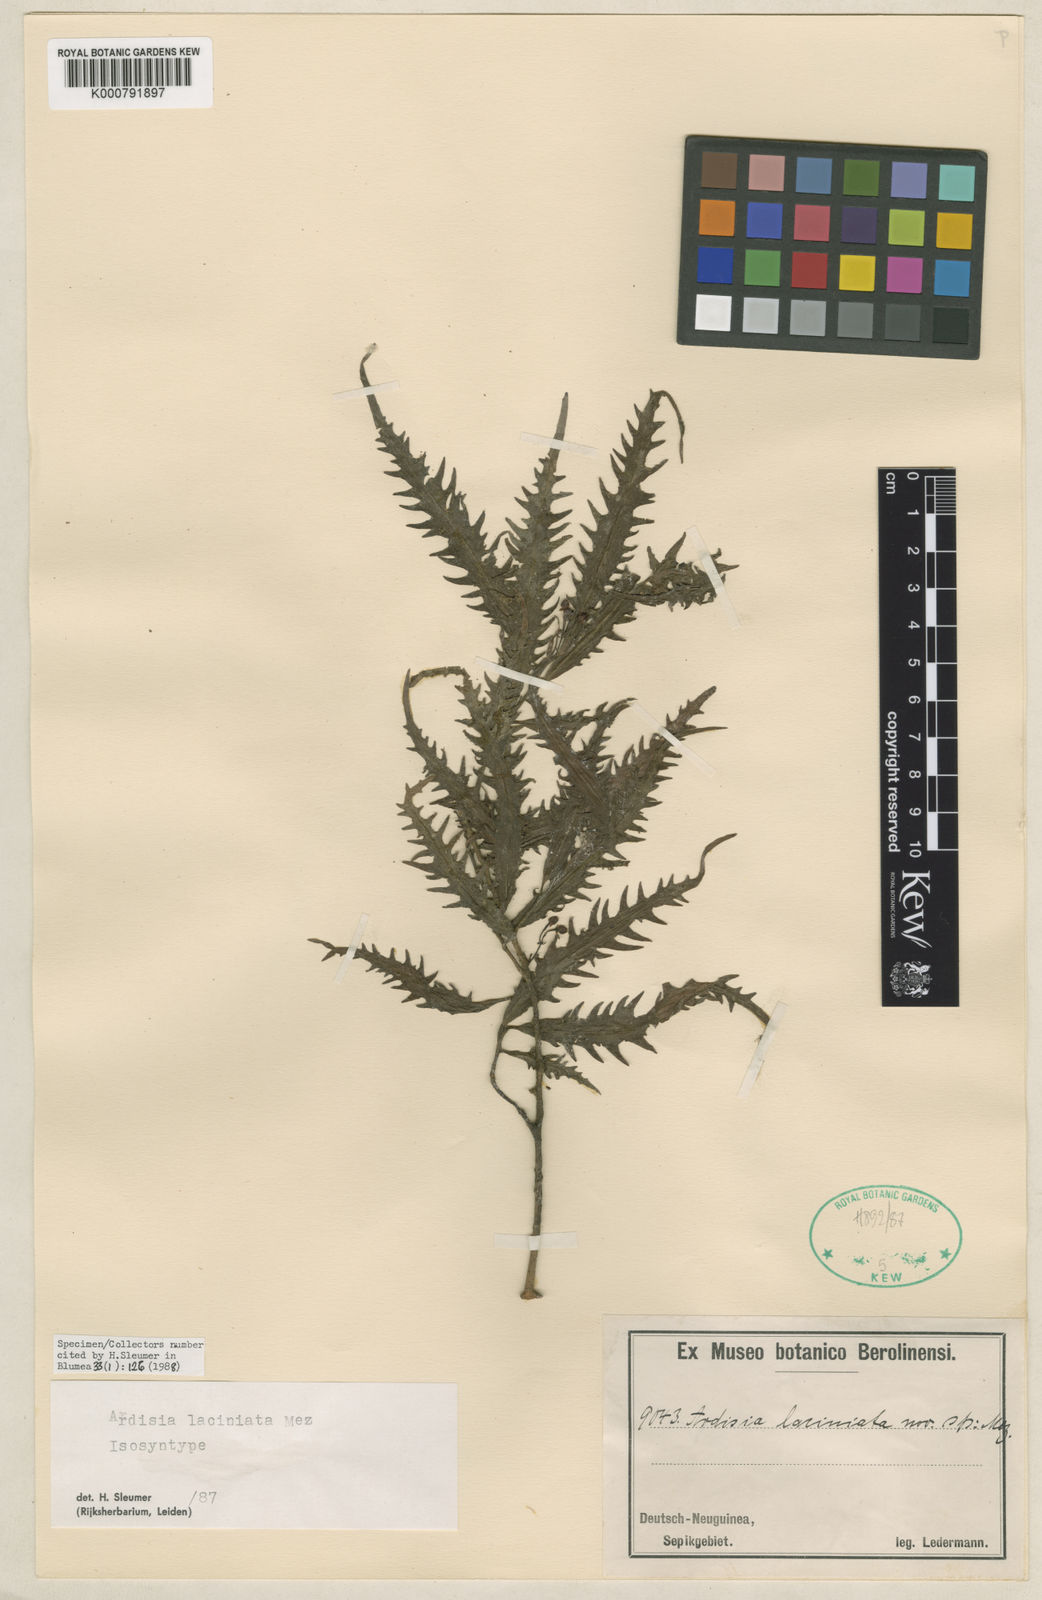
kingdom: Plantae
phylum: Tracheophyta
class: Magnoliopsida
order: Ericales
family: Primulaceae
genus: Ardisia
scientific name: Ardisia laciniata
